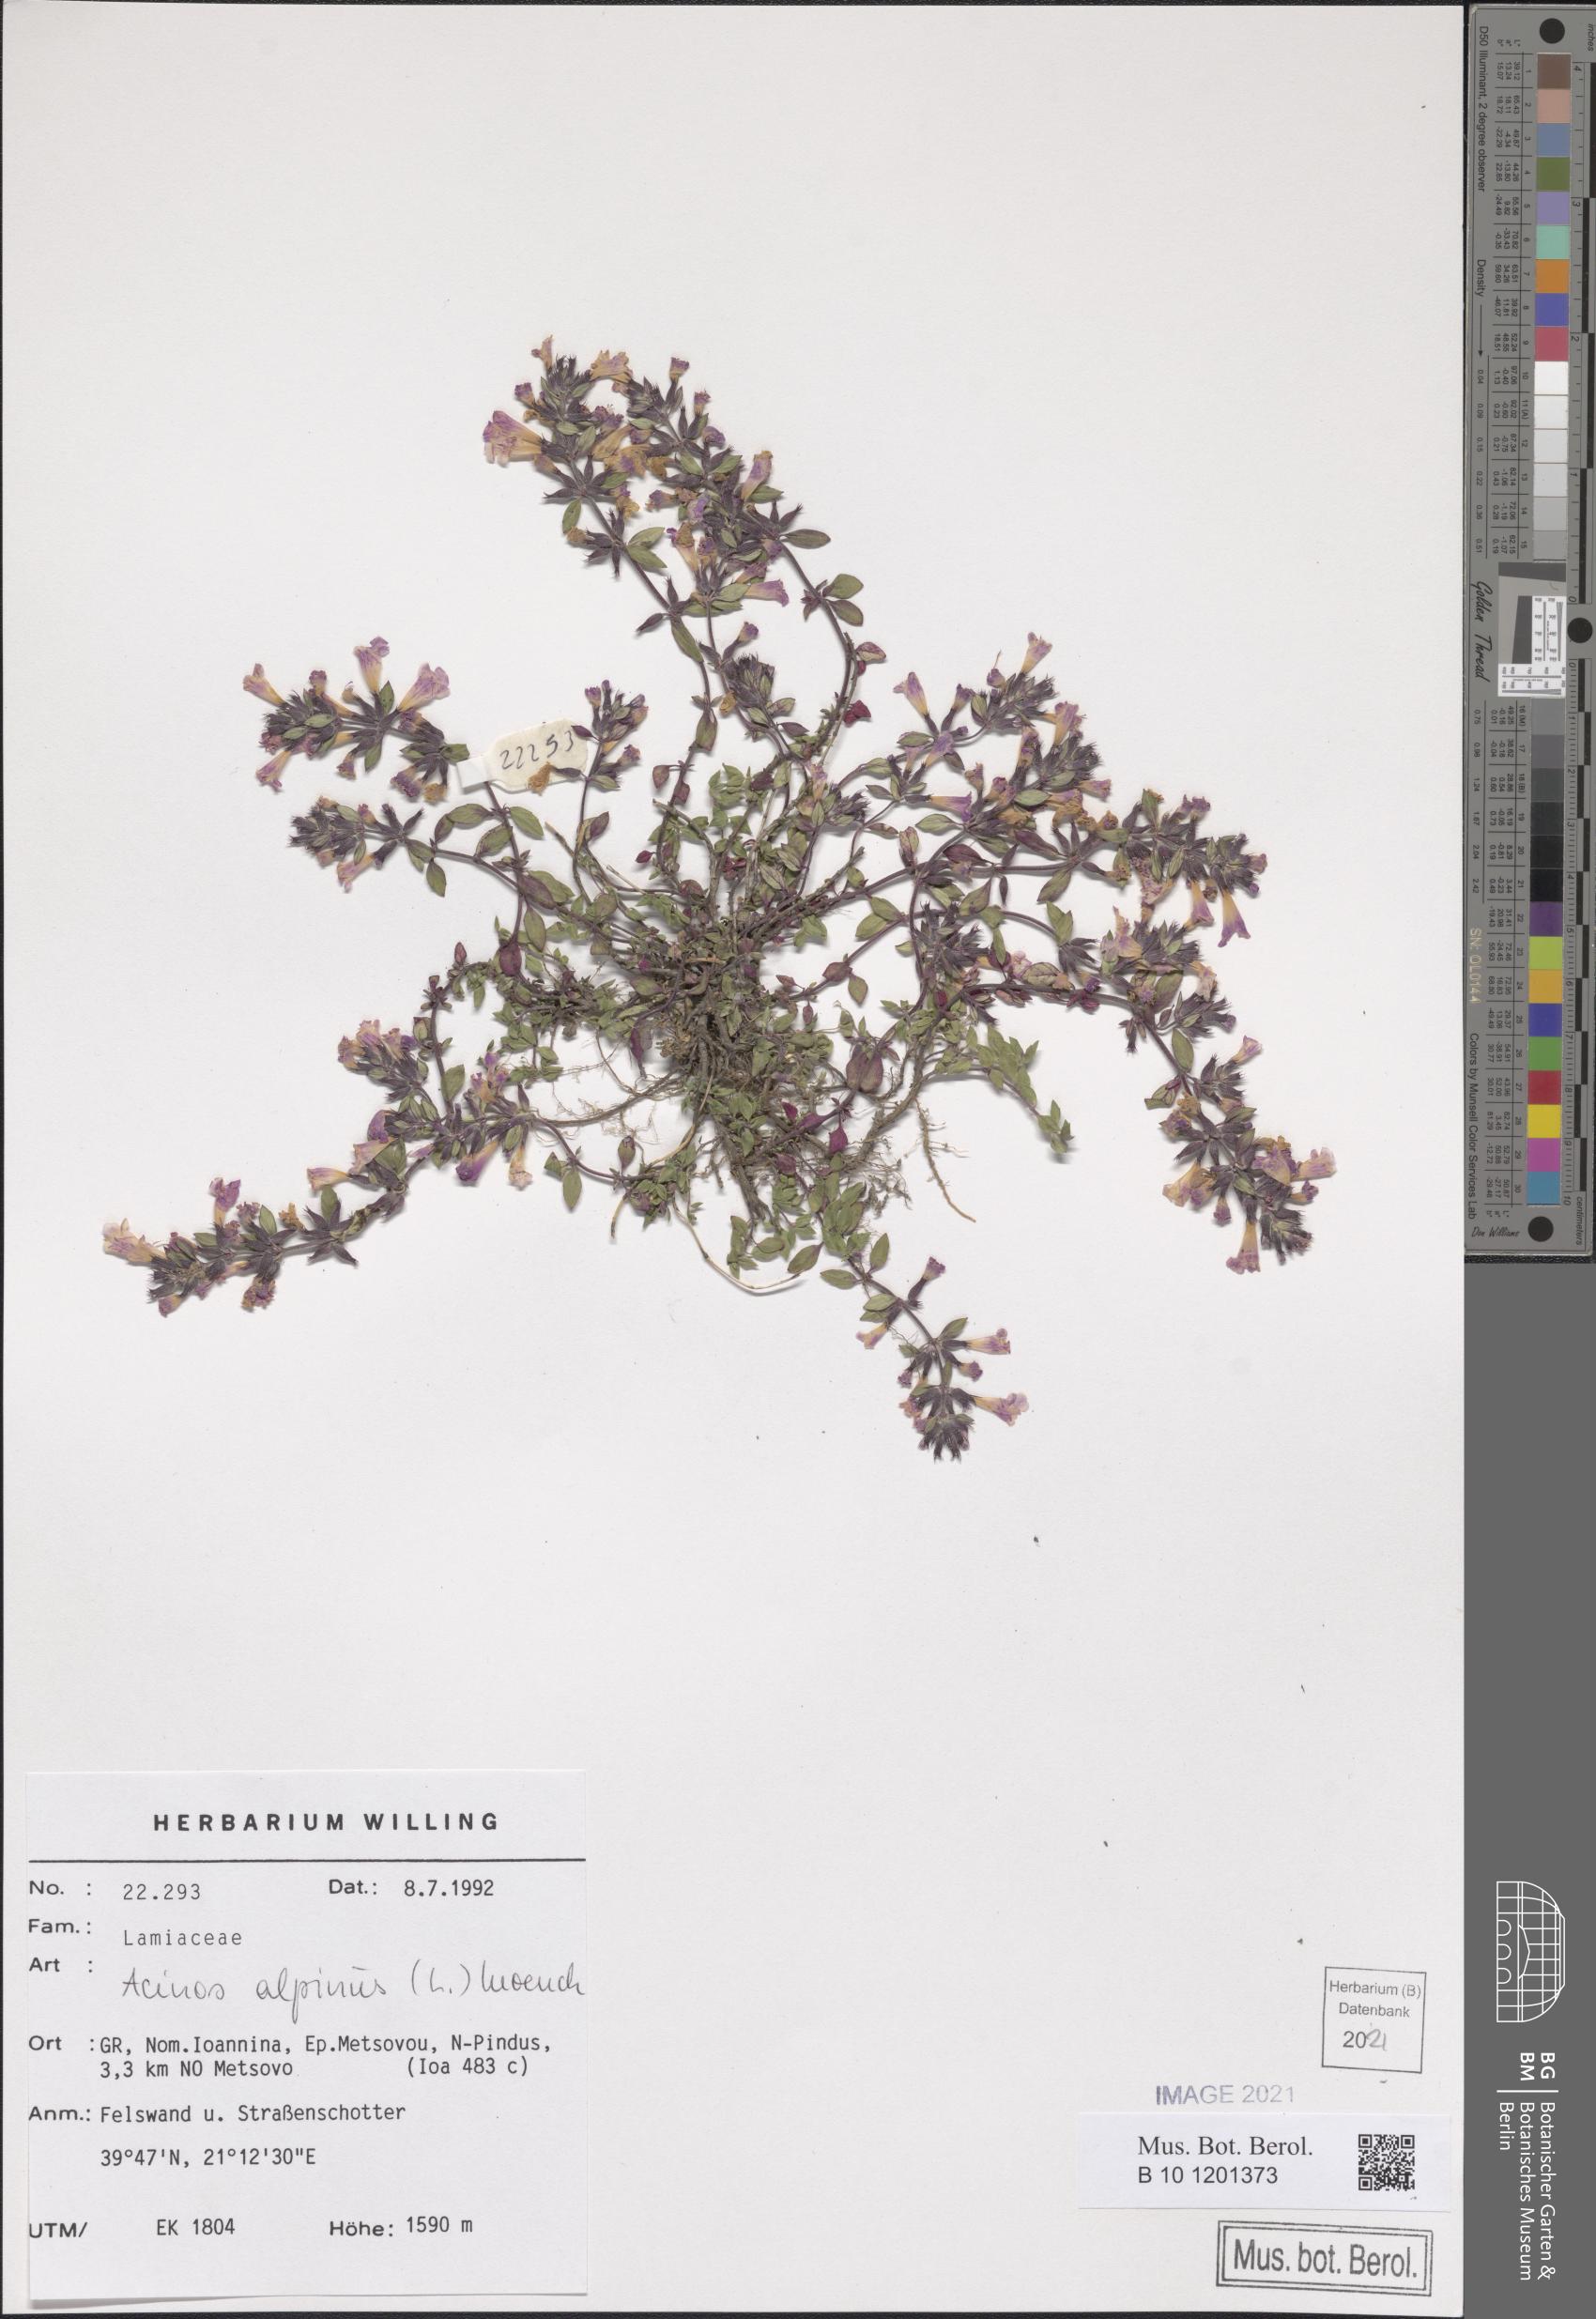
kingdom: Plantae
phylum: Tracheophyta
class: Magnoliopsida
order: Lamiales
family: Lamiaceae
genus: Clinopodium
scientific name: Clinopodium alpinum
